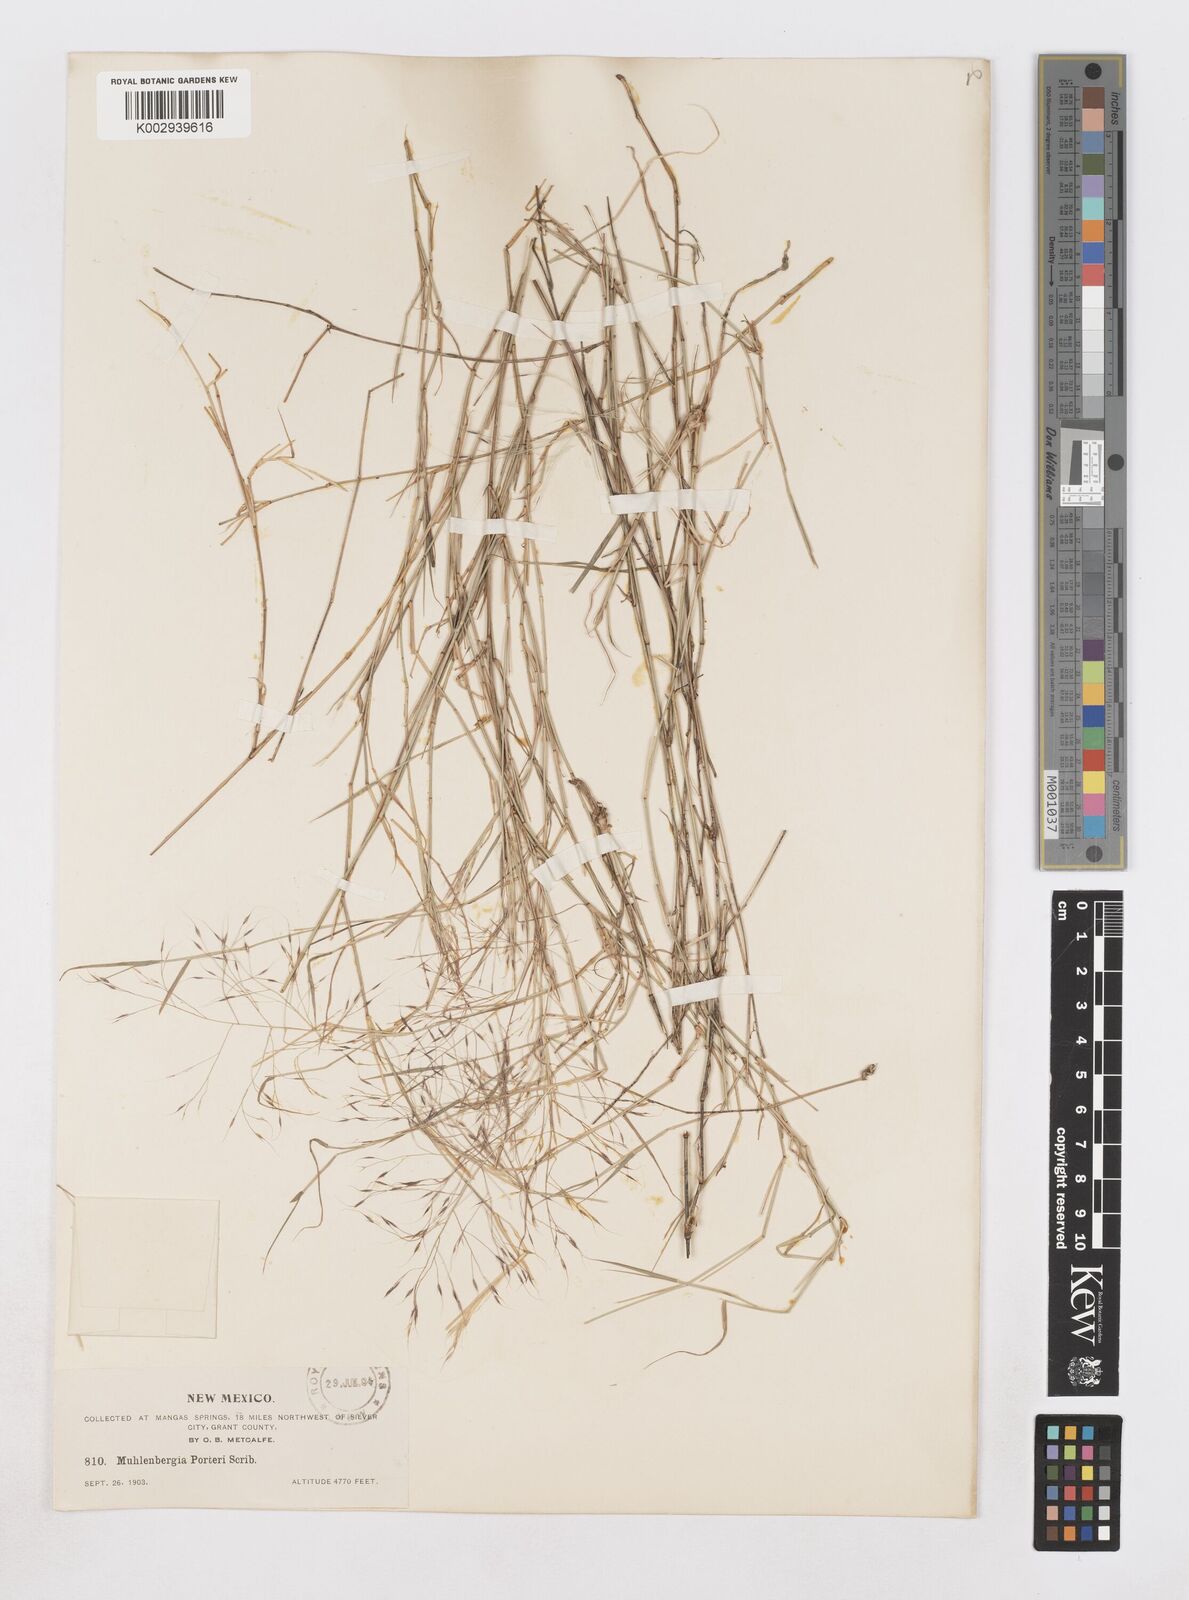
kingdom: Plantae
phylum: Tracheophyta
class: Liliopsida
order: Poales
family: Poaceae
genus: Muhlenbergia
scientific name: Muhlenbergia porteri
